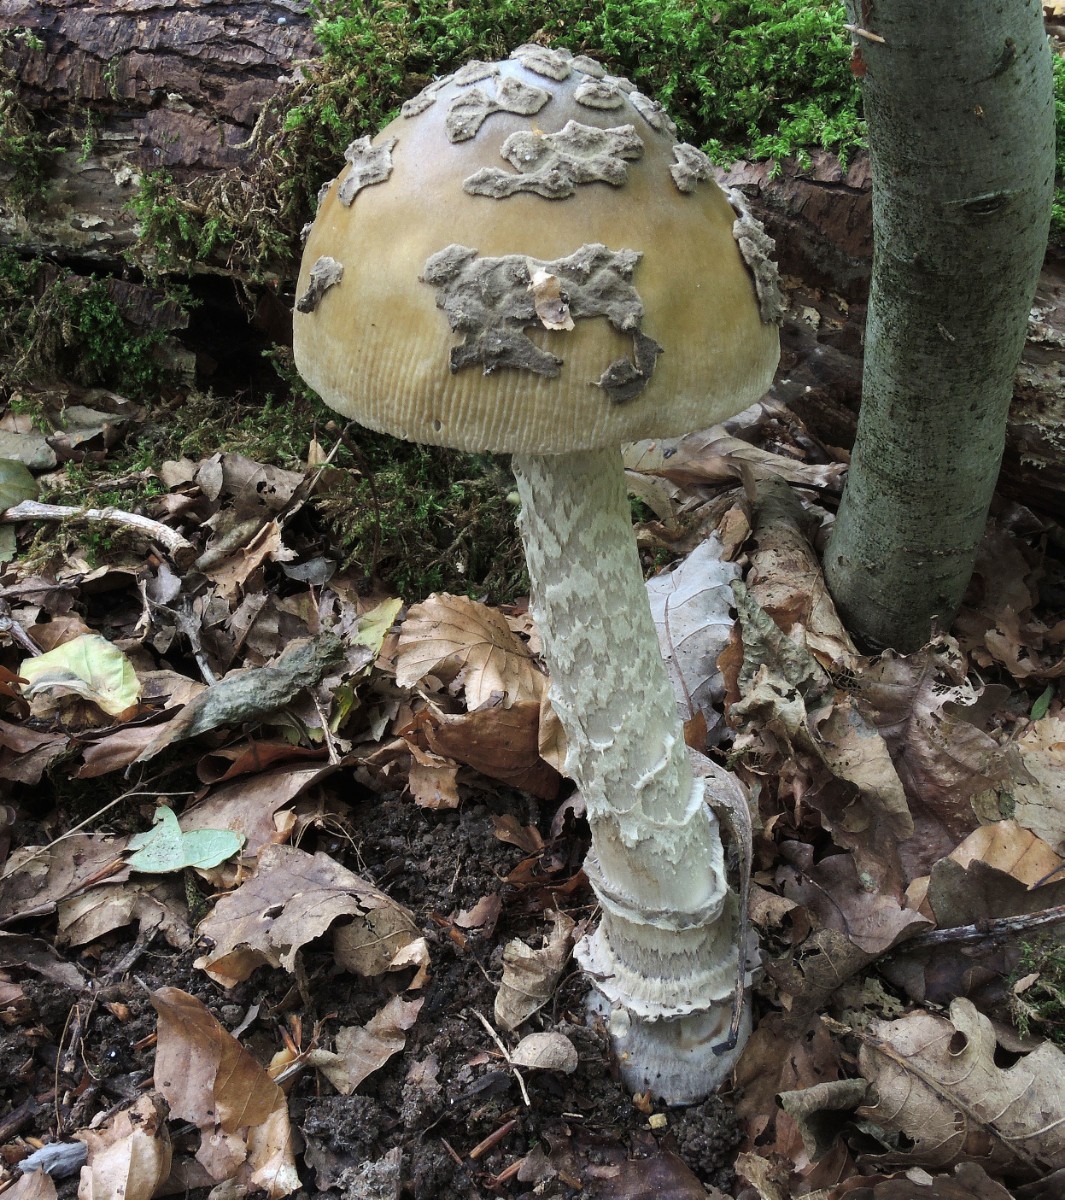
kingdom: Fungi
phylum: Basidiomycota
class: Agaricomycetes
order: Agaricales
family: Amanitaceae
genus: Amanita
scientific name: Amanita ceciliae
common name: stor kam-fluesvamp
